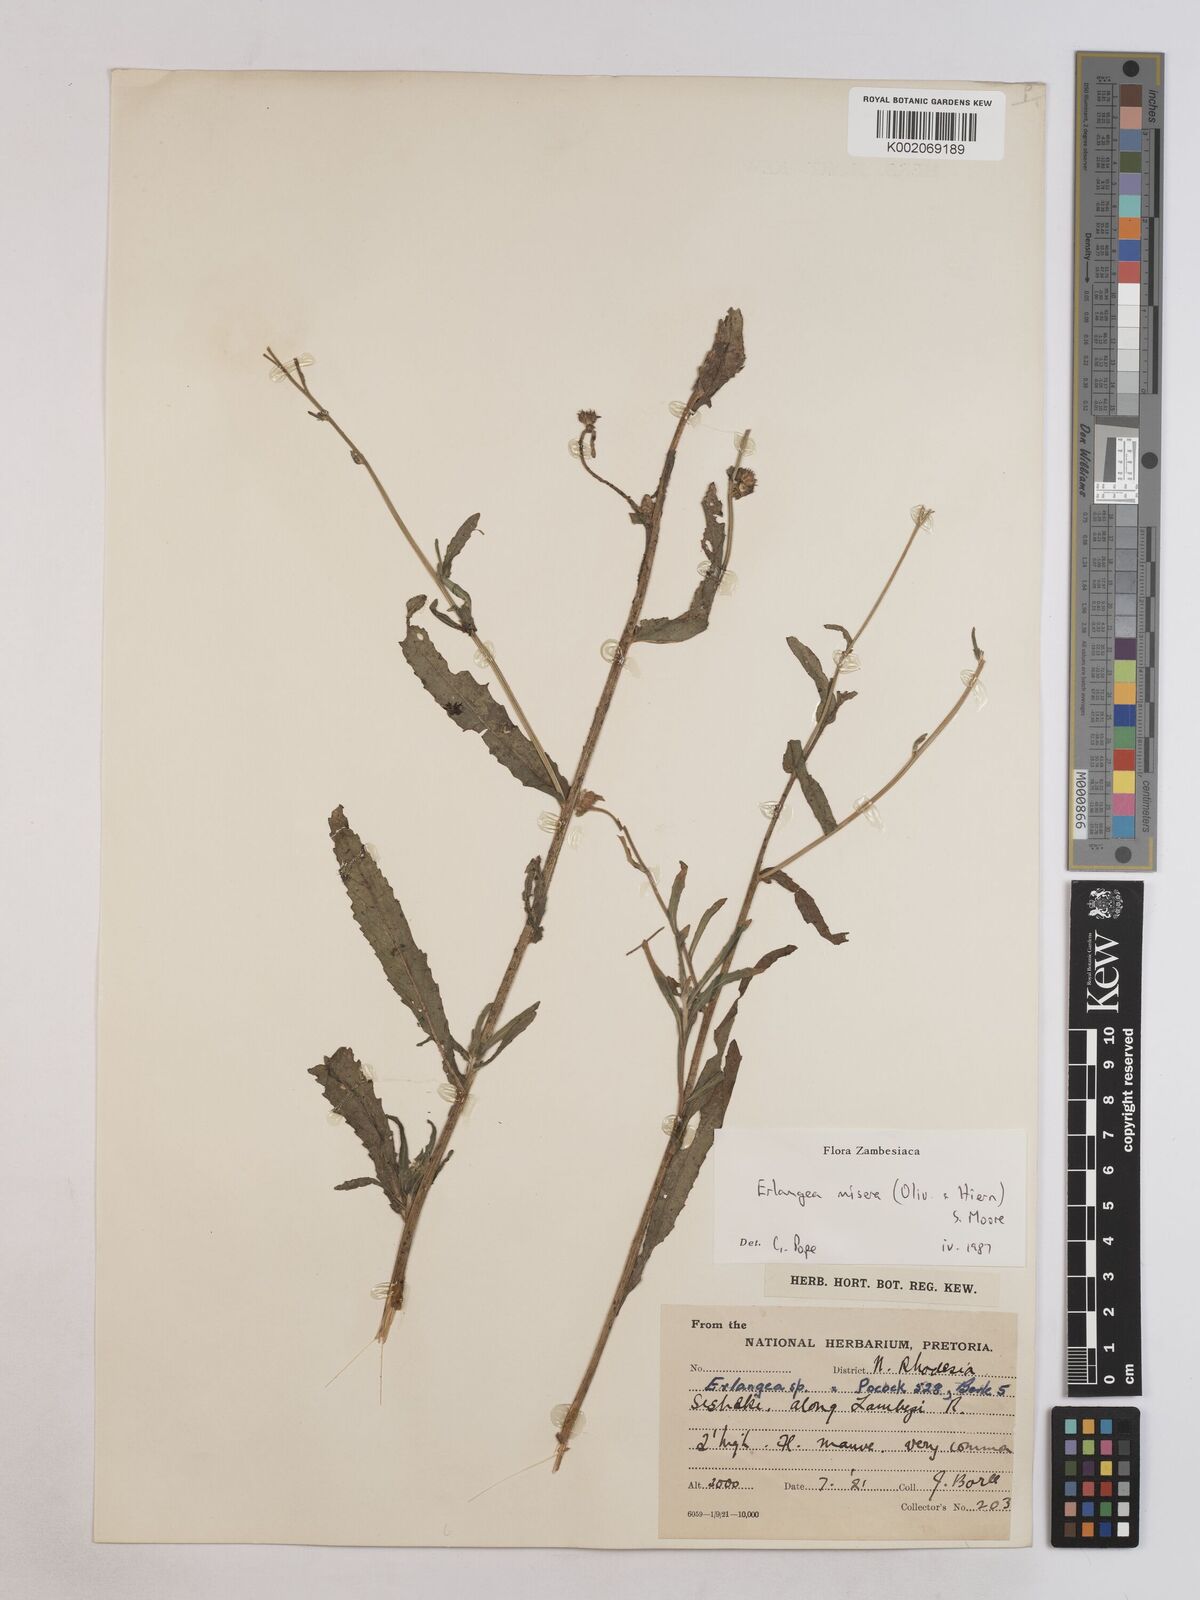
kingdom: Plantae
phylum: Tracheophyta
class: Magnoliopsida
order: Asterales
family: Asteraceae
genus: Erlangea
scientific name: Erlangea misera
